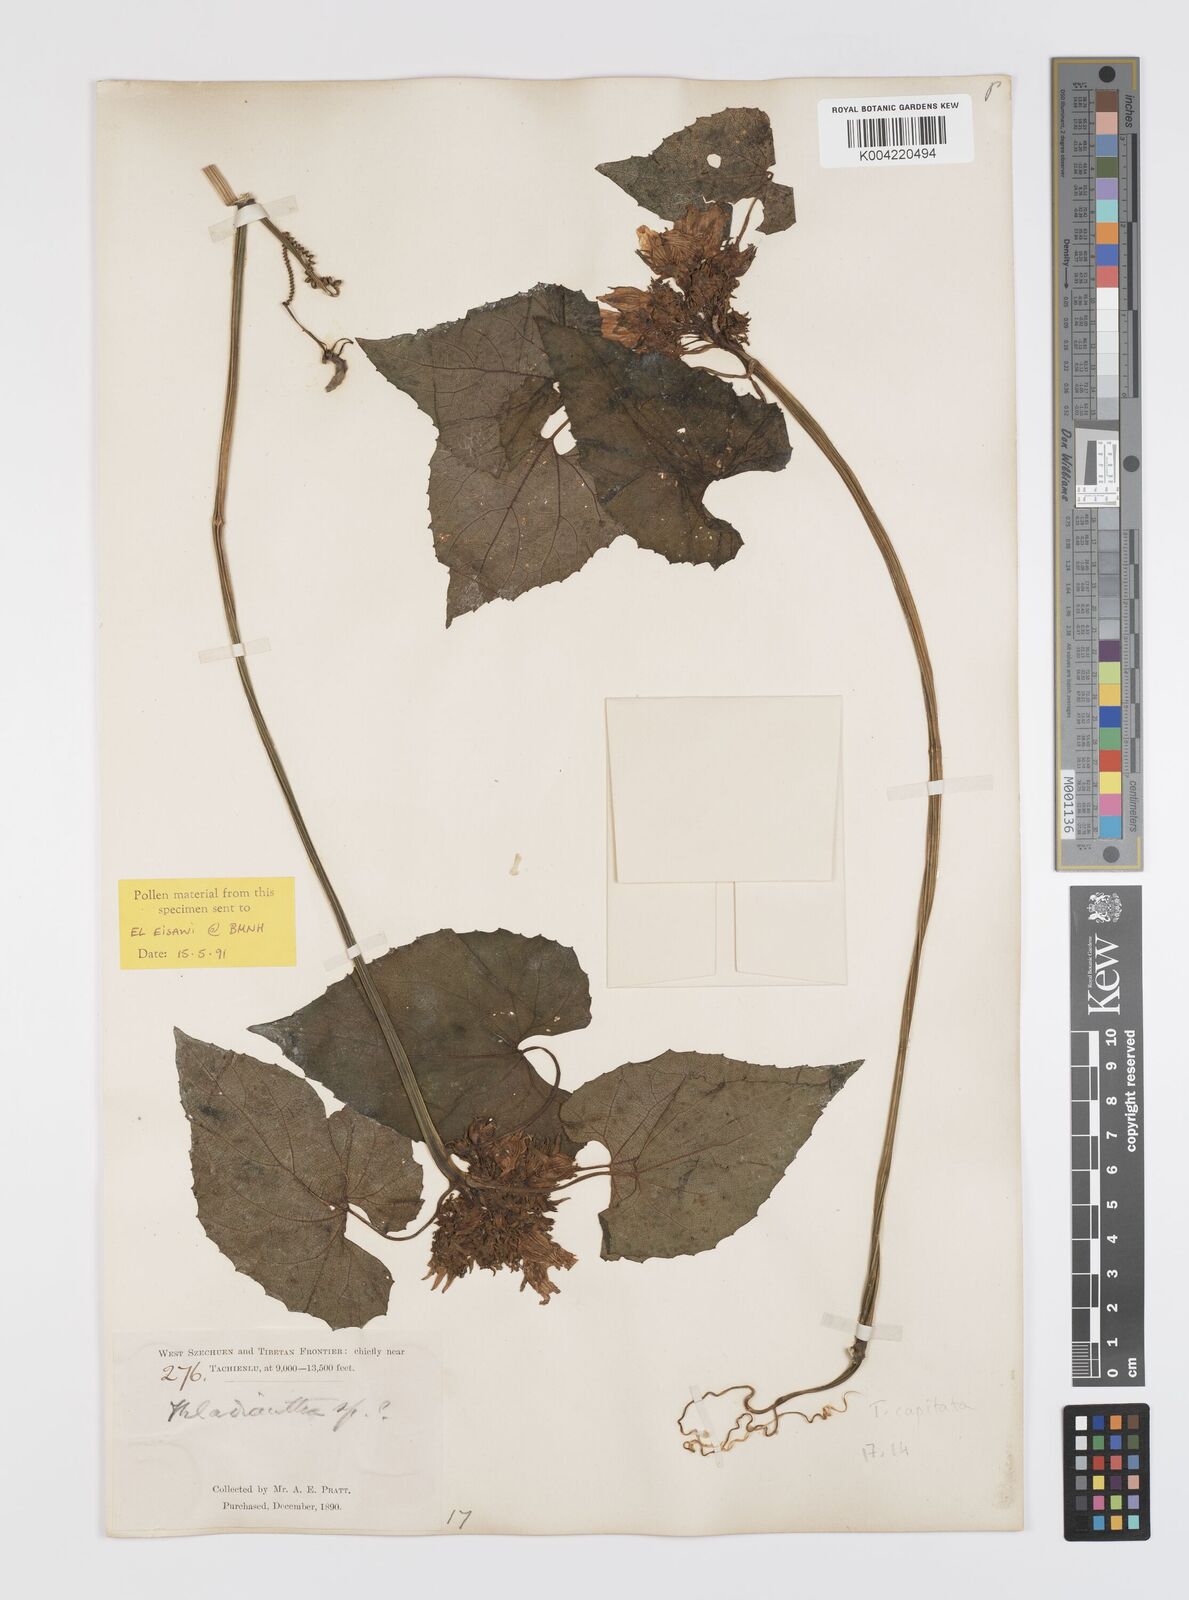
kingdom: Plantae
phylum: Tracheophyta
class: Magnoliopsida
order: Cucurbitales
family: Cucurbitaceae
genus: Thladiantha
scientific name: Thladiantha capitata
